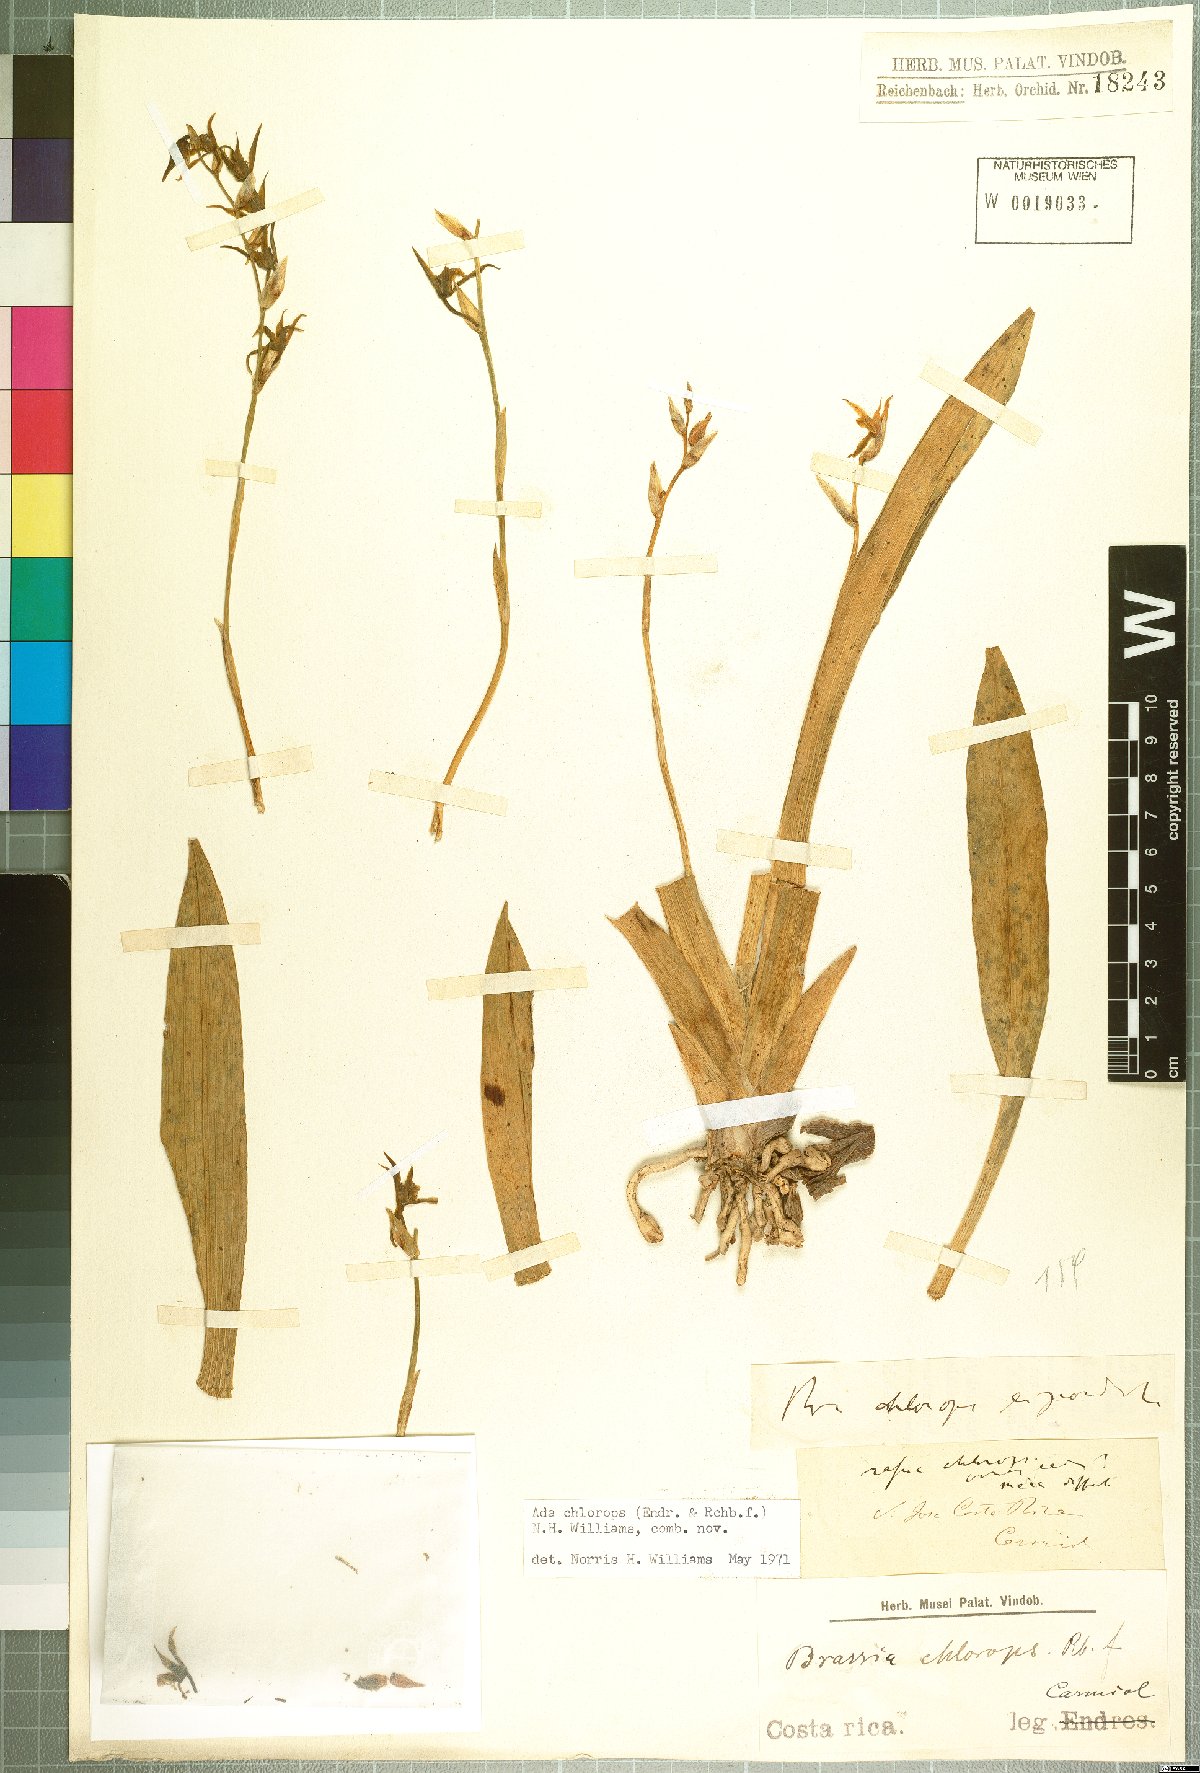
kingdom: Plantae
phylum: Tracheophyta
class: Liliopsida
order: Asparagales
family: Orchidaceae
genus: Brassia
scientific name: Brassia chlorops
